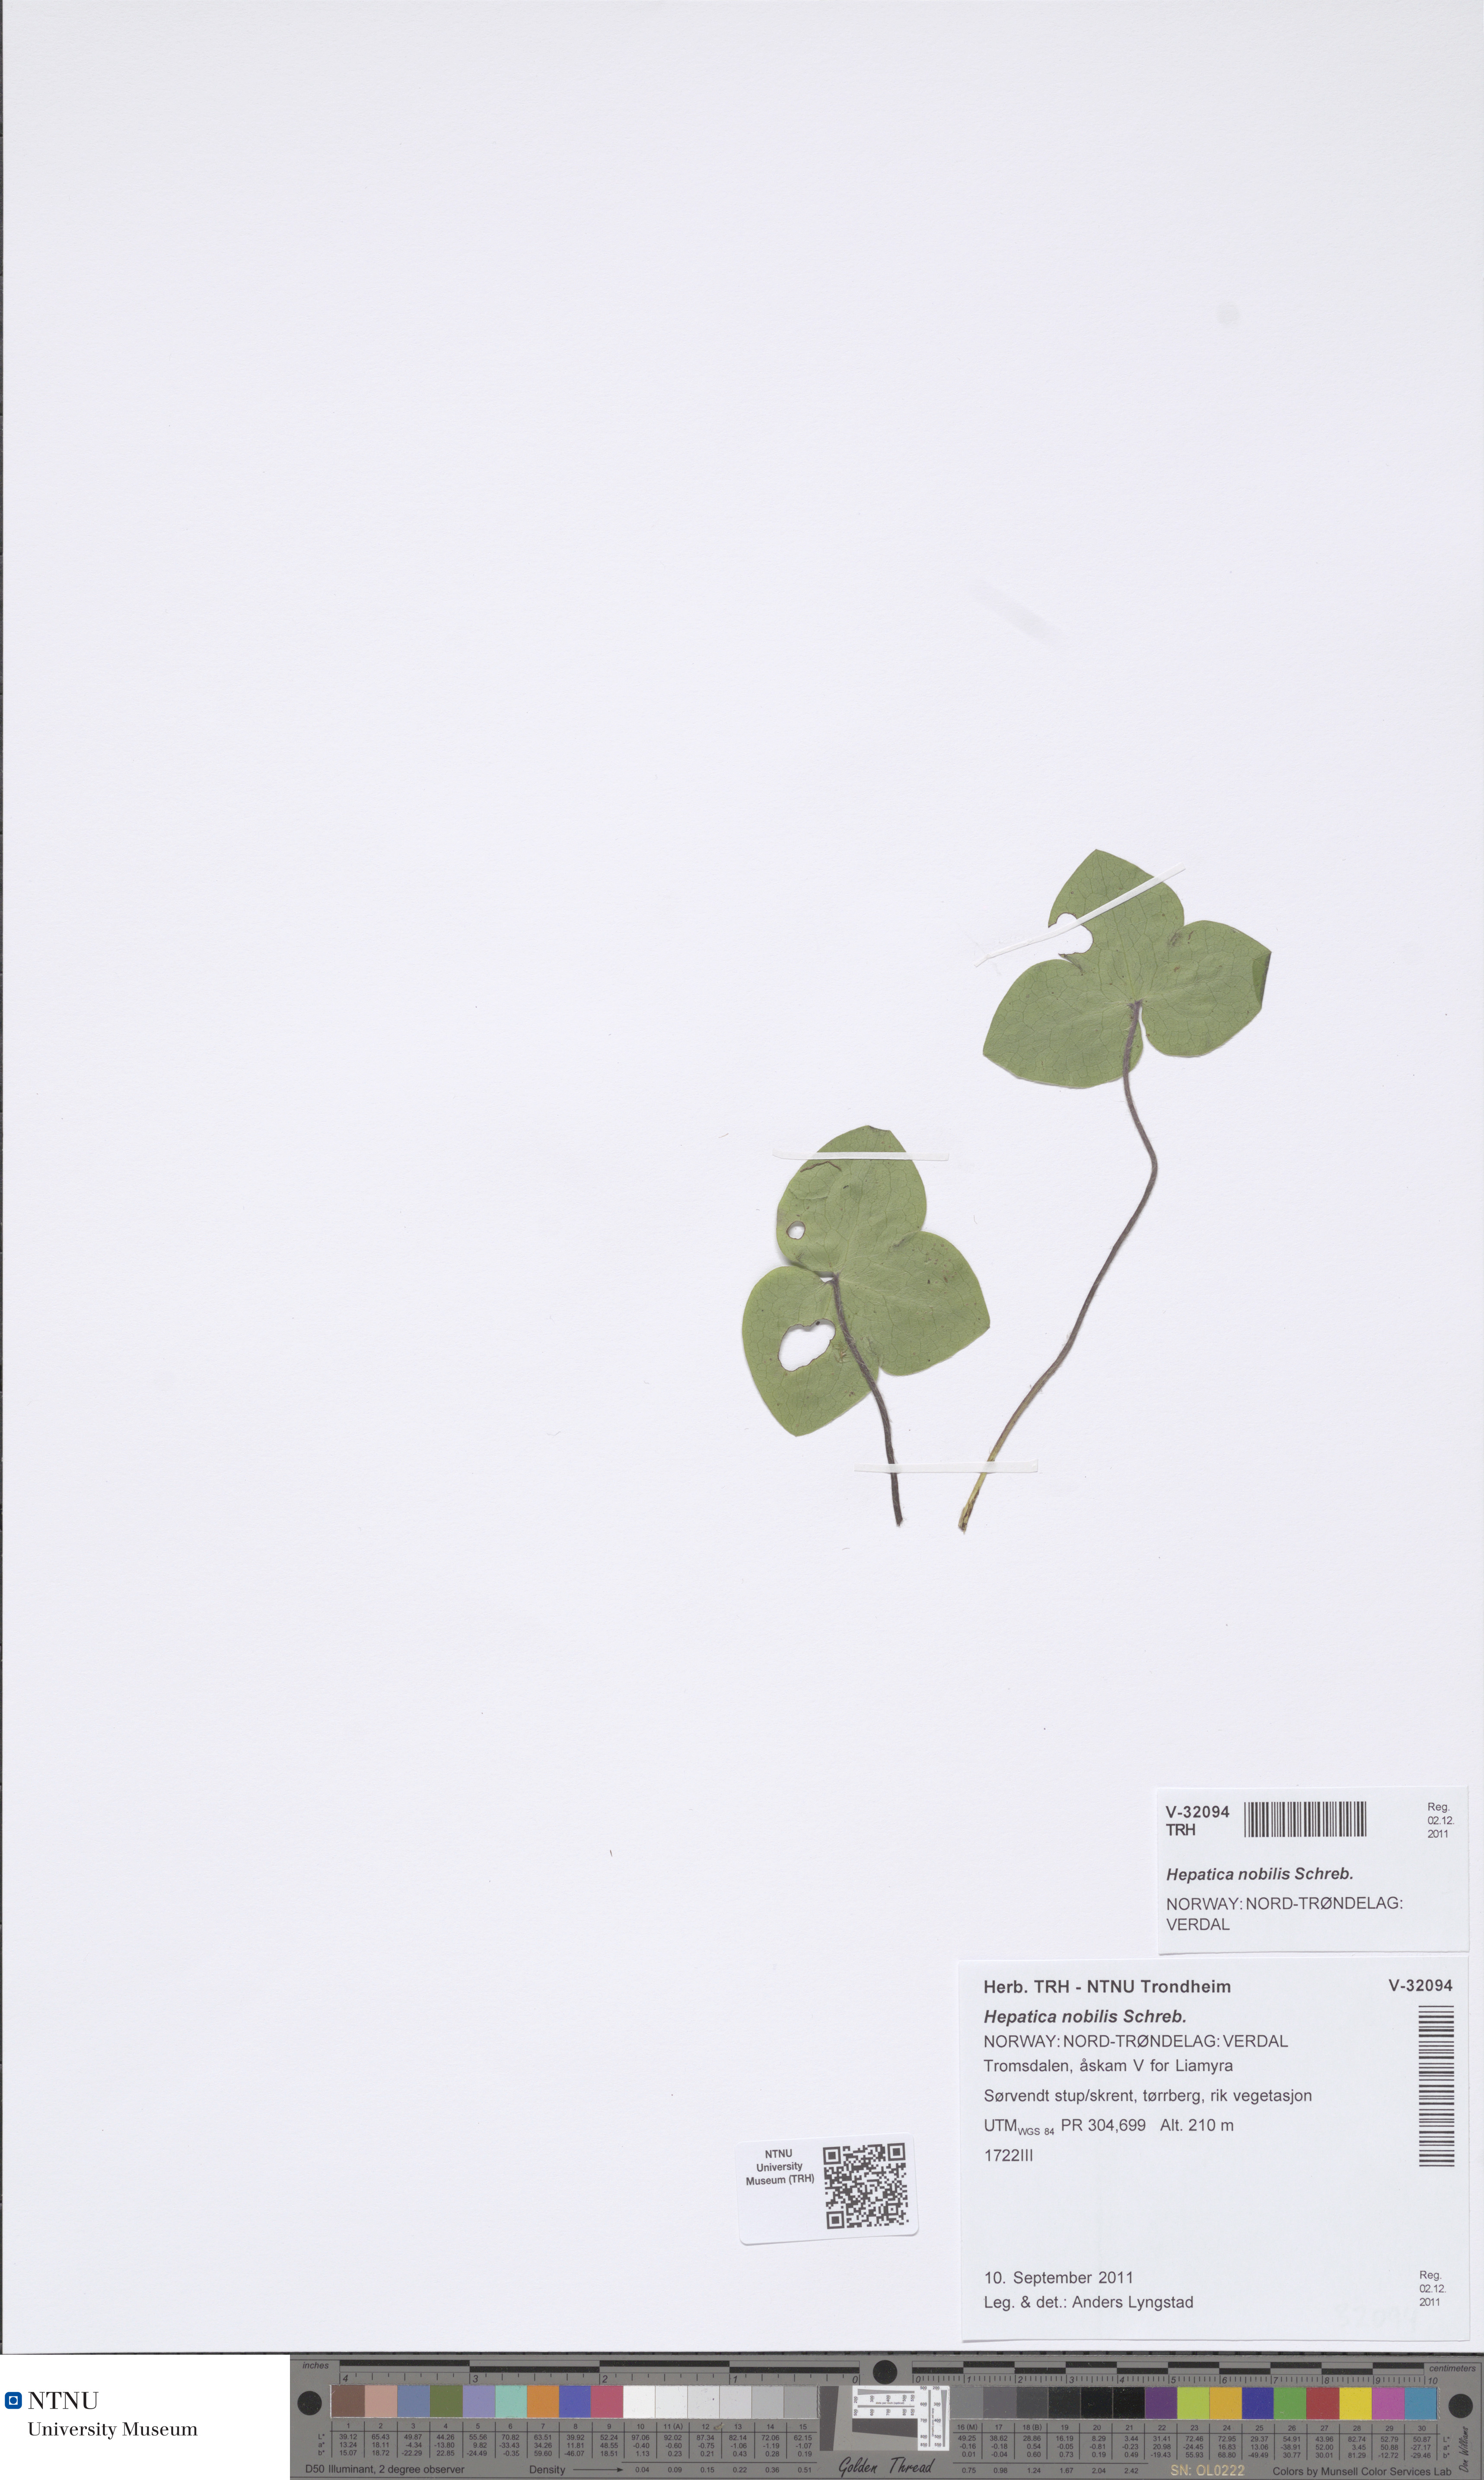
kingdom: Plantae
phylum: Tracheophyta
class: Magnoliopsida
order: Ranunculales
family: Ranunculaceae
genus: Hepatica
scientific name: Hepatica nobilis
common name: Liverleaf
